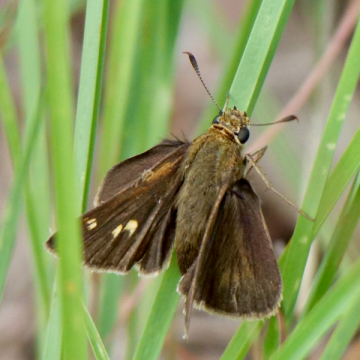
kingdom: Animalia
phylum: Arthropoda
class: Insecta
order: Lepidoptera
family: Hesperiidae
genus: Polites
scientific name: Polites egeremet
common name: Northern Broken-Dash
